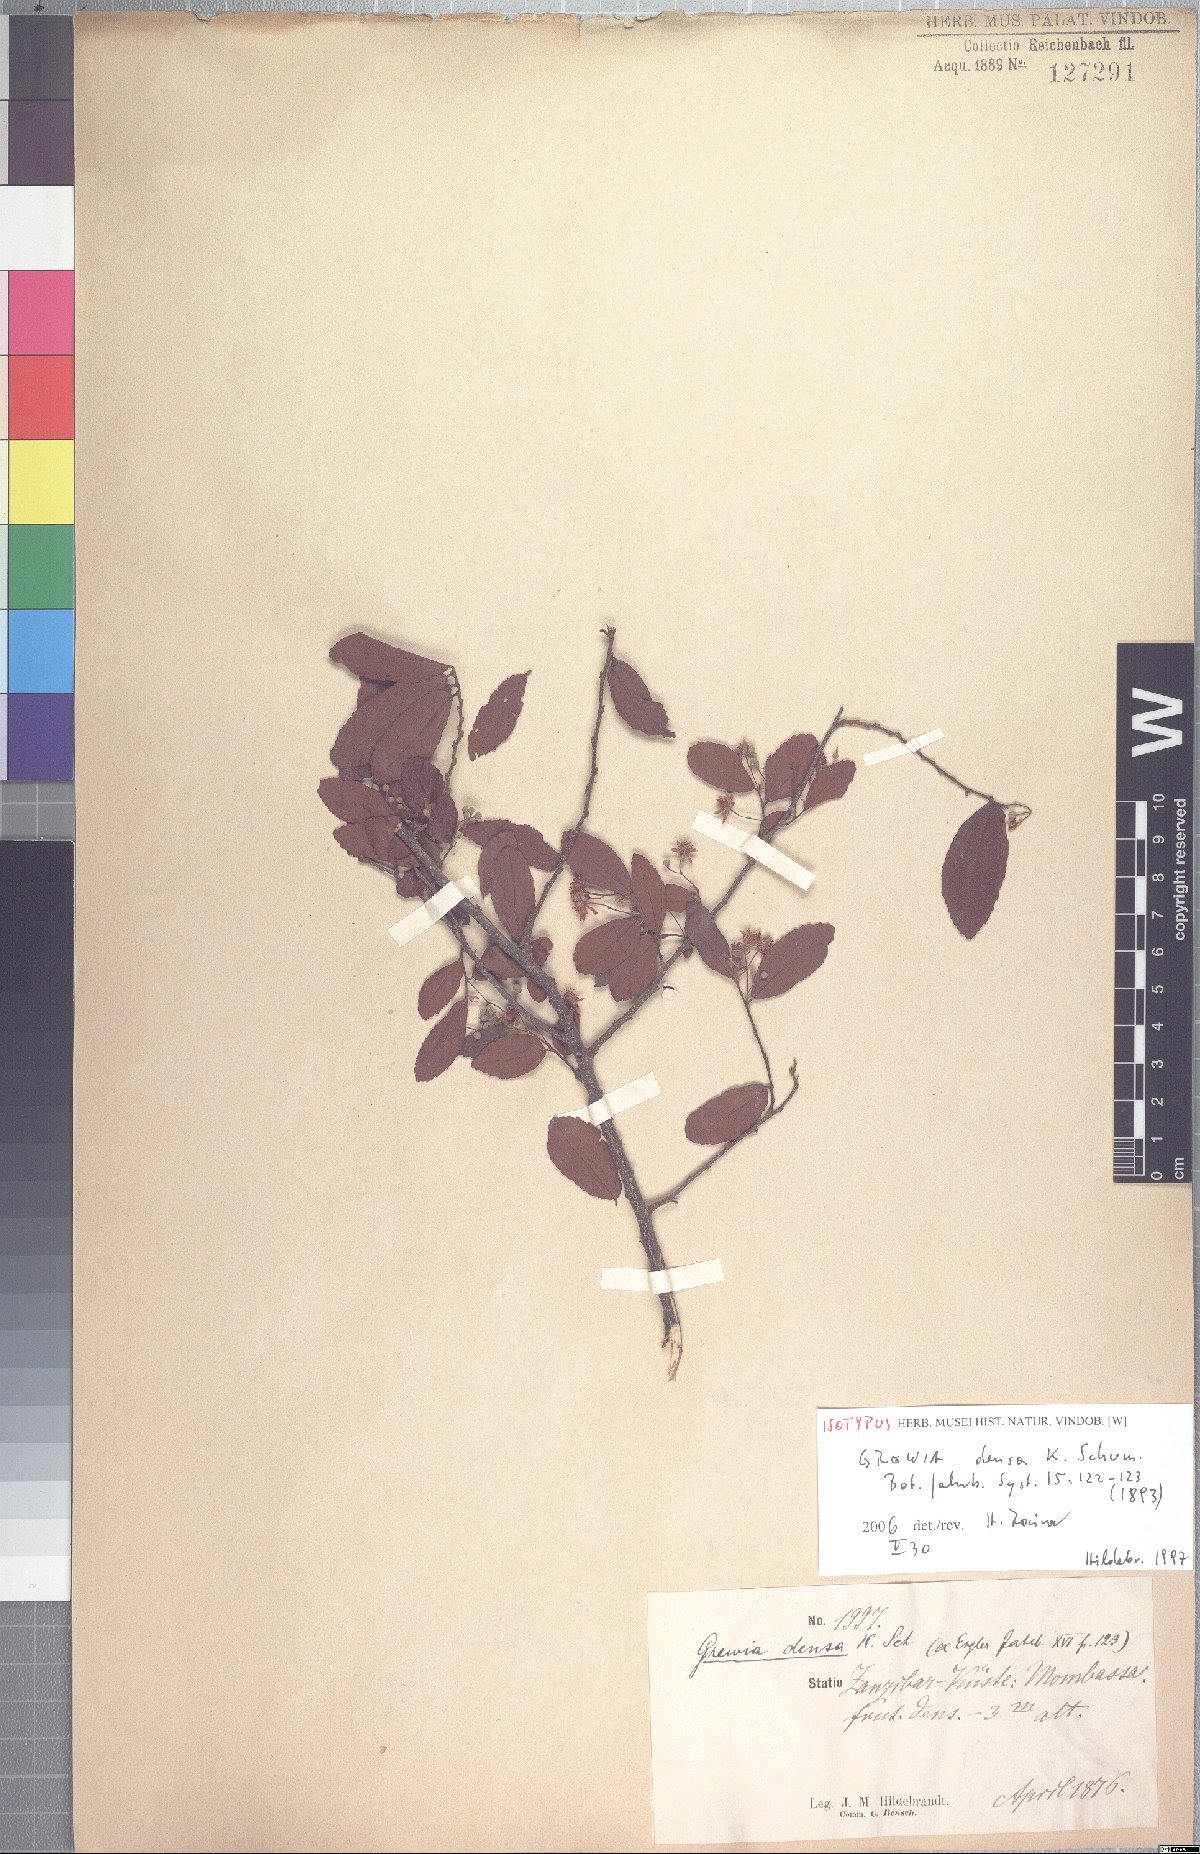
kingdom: Plantae
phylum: Tracheophyta
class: Magnoliopsida
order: Malvales
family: Malvaceae
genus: Grewia
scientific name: Grewia densa
